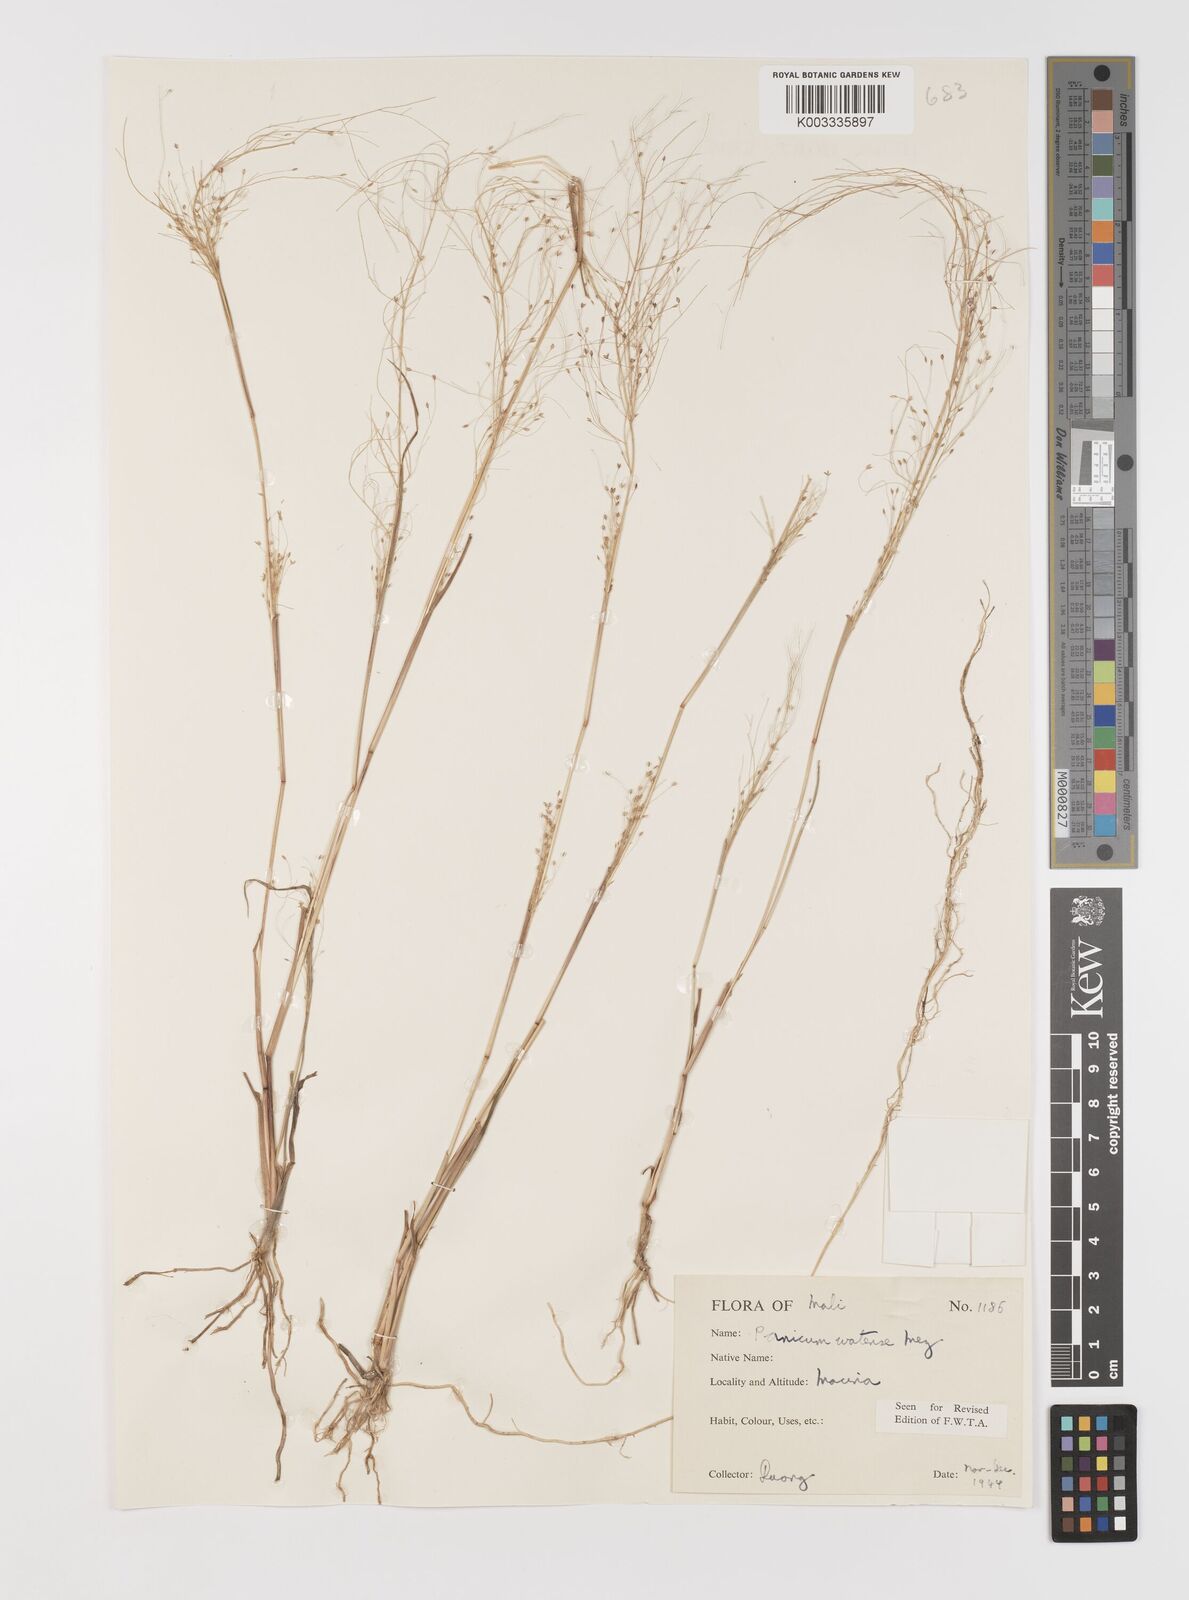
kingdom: Plantae
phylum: Tracheophyta
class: Liliopsida
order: Poales
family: Poaceae
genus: Panicum
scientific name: Panicum humile
